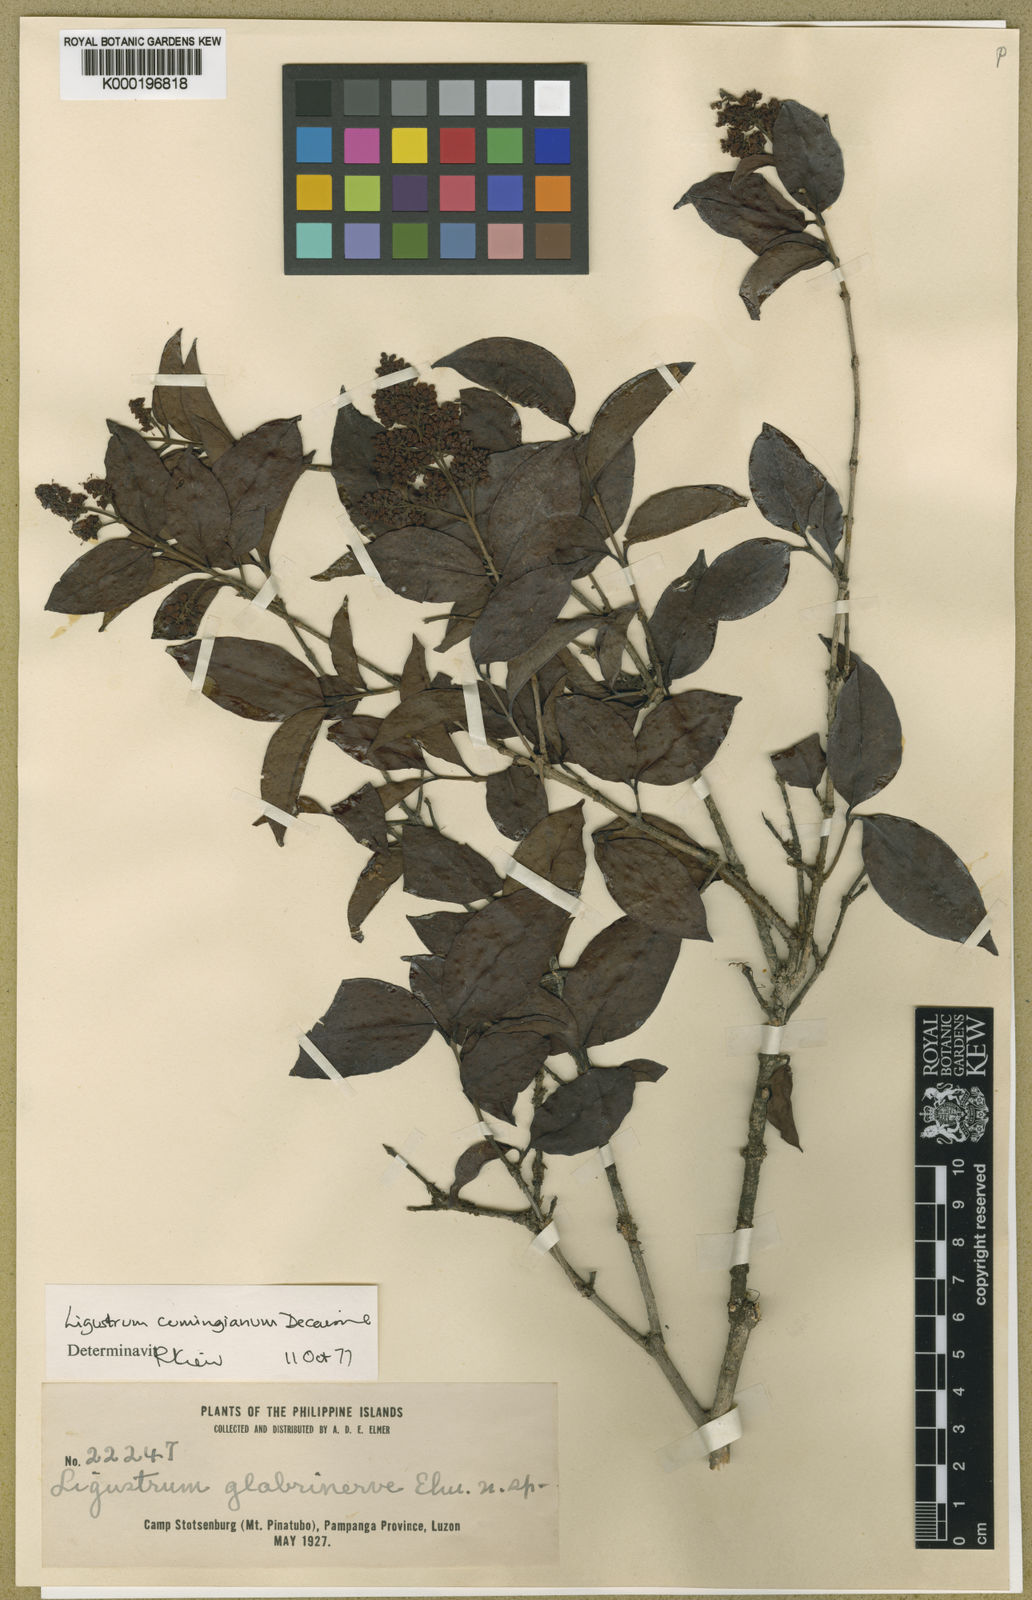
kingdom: Plantae
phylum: Tracheophyta
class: Magnoliopsida
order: Lamiales
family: Oleaceae
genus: Ligustrum
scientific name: Ligustrum cumingianum
